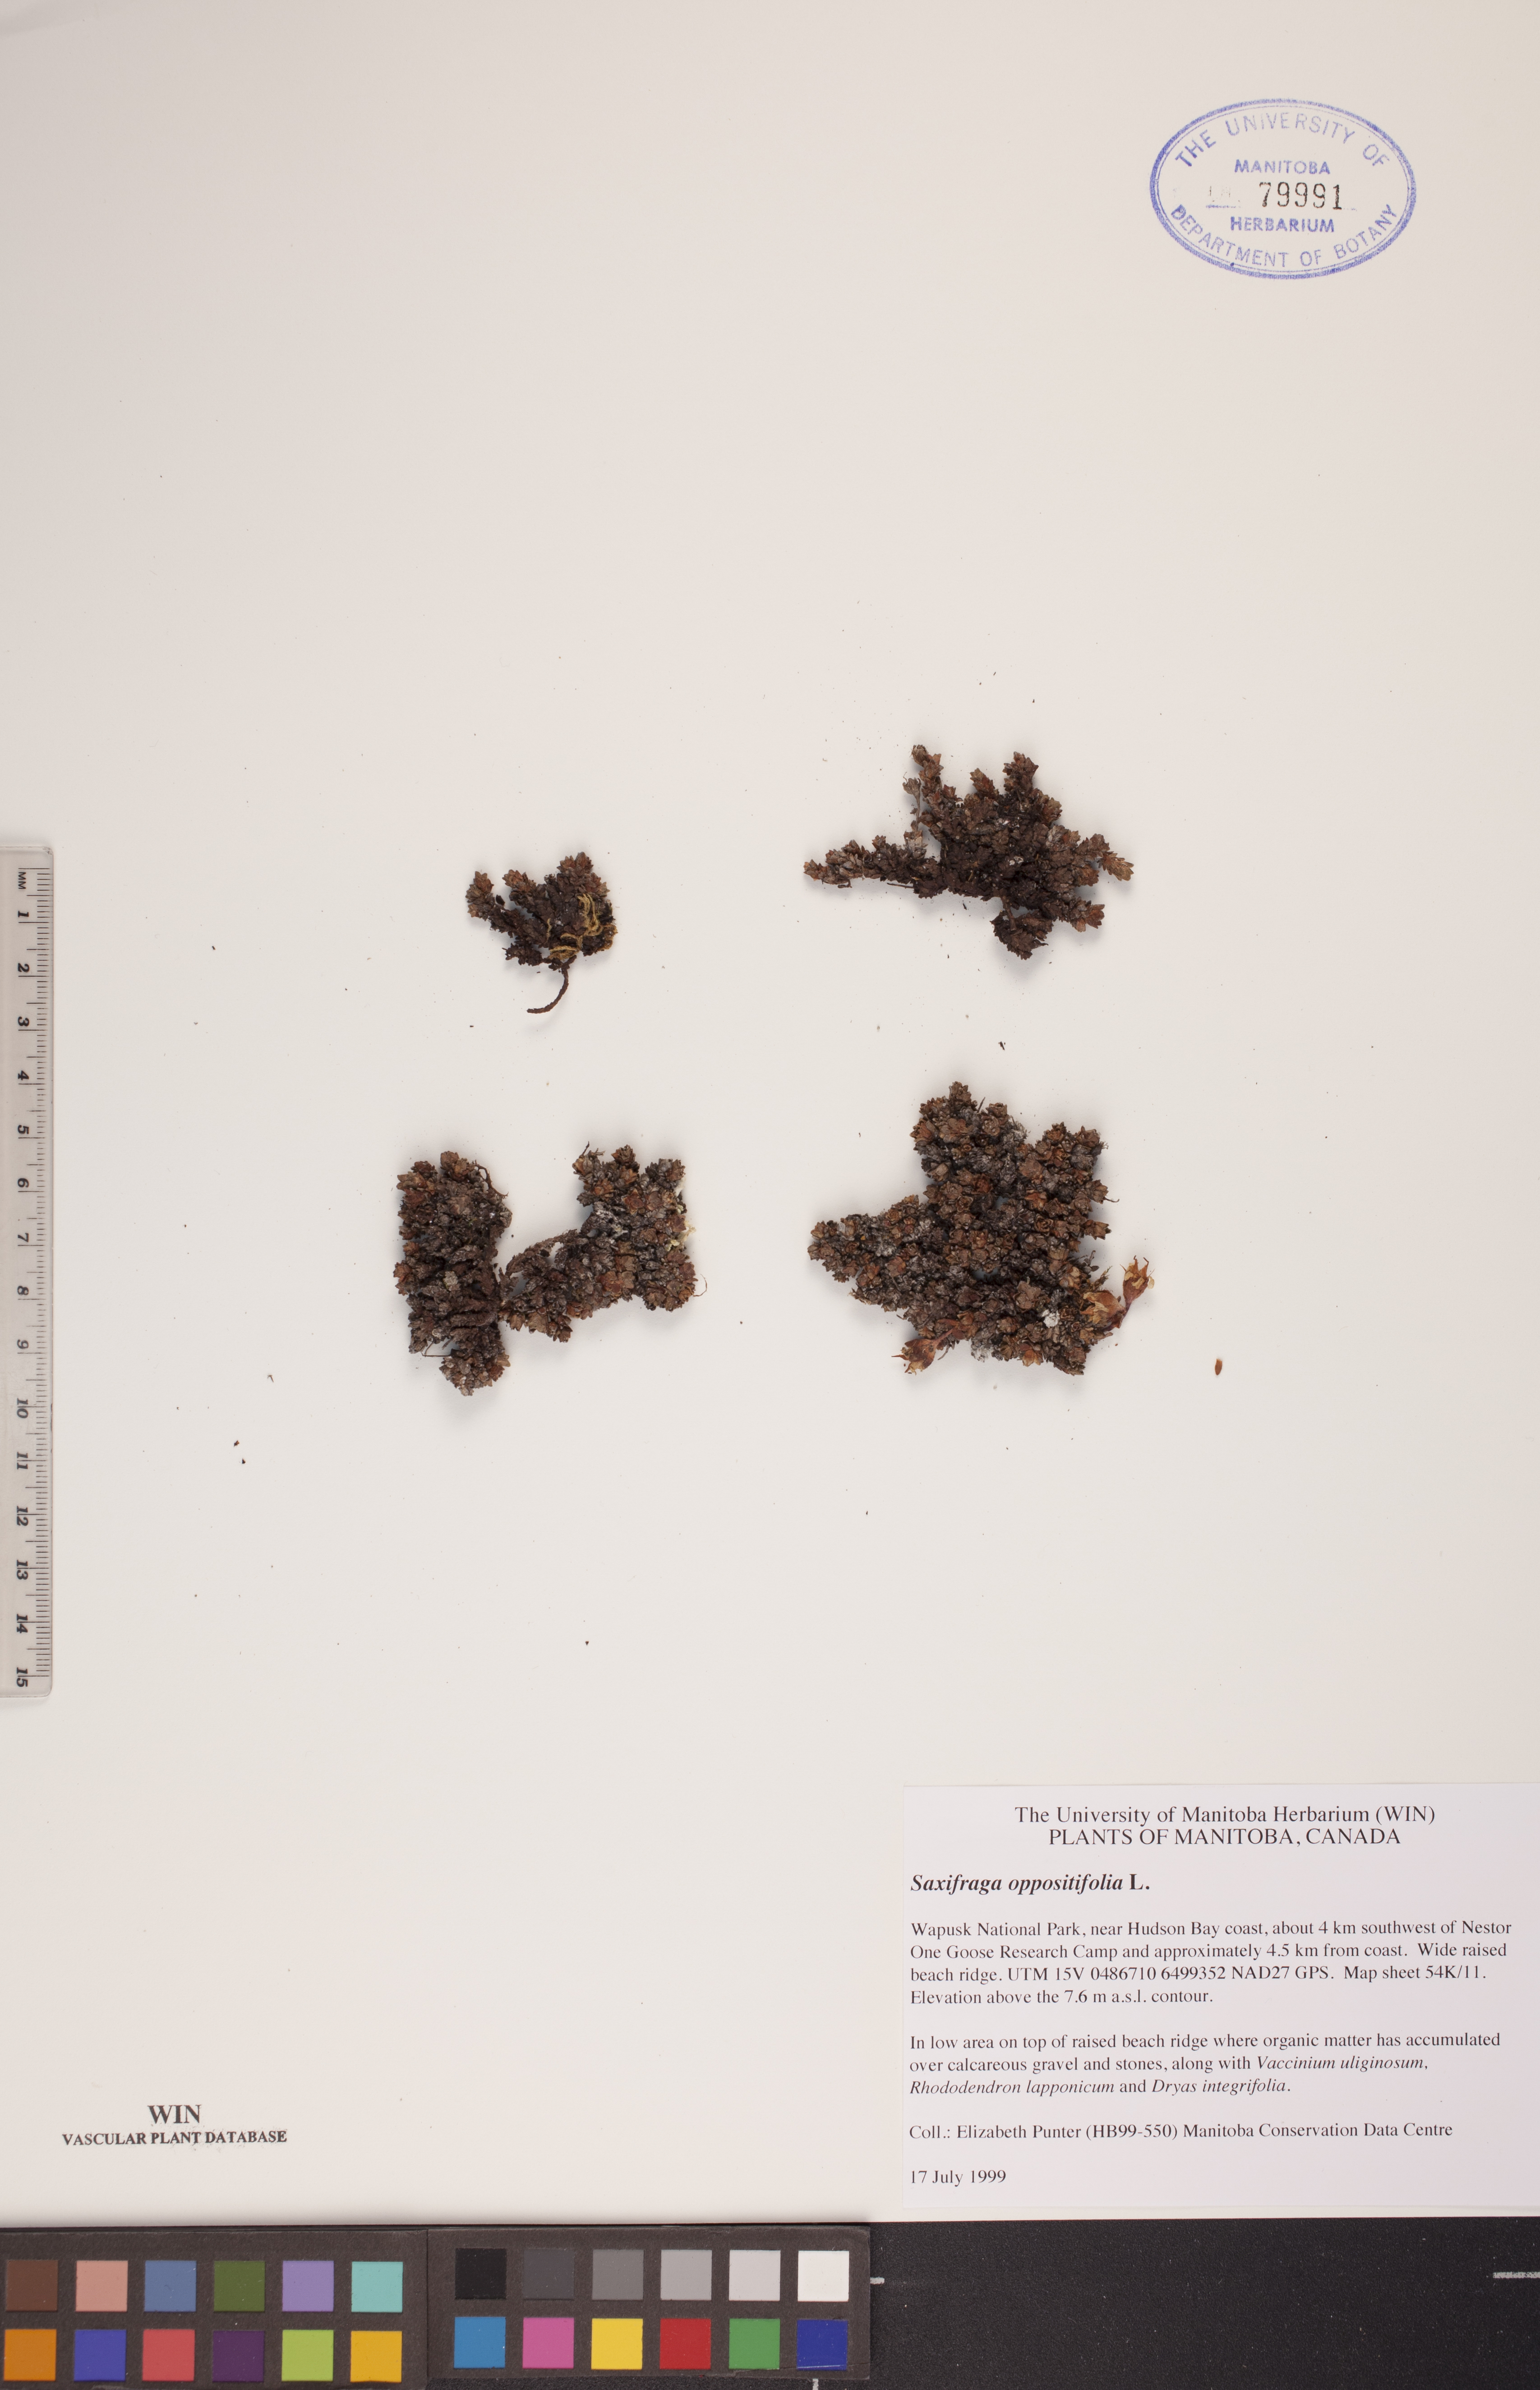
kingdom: Plantae
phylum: Tracheophyta
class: Magnoliopsida
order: Saxifragales
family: Saxifragaceae
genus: Saxifraga
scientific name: Saxifraga oppositifolia
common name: Purple saxifrage
